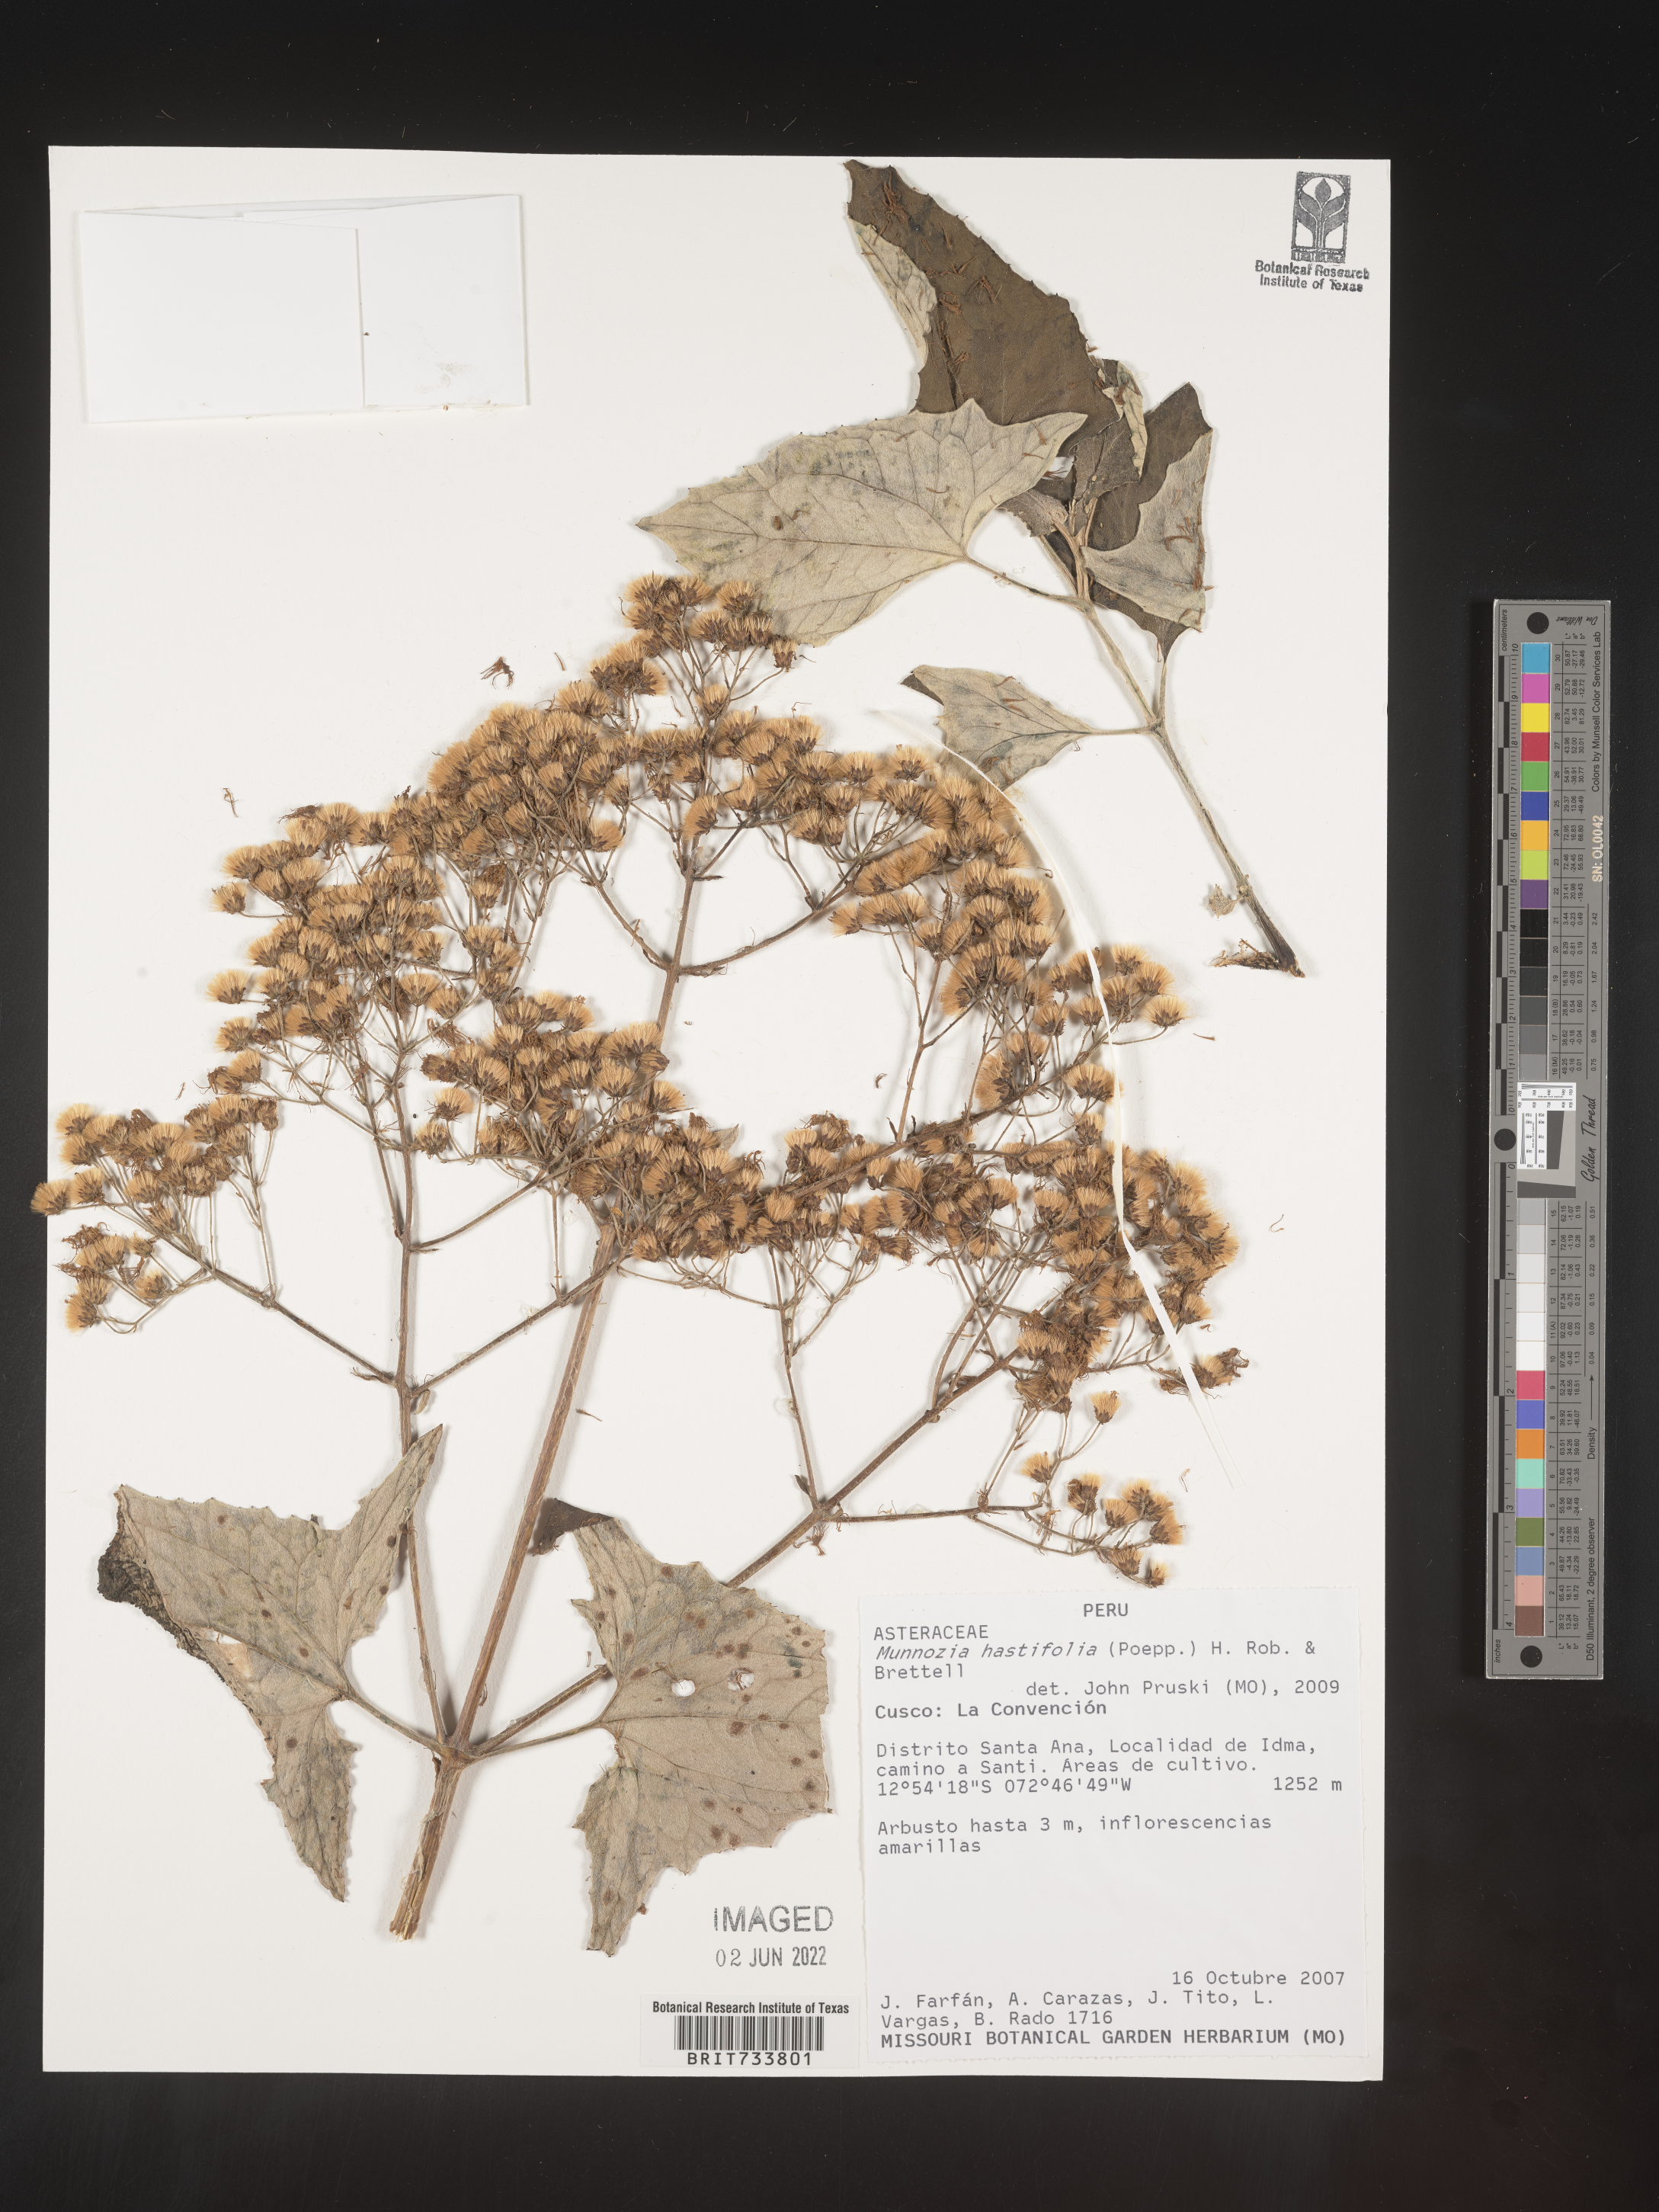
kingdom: Plantae
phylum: Tracheophyta
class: Magnoliopsida
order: Asterales
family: Asteraceae
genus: Munnozia
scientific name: Munnozia
